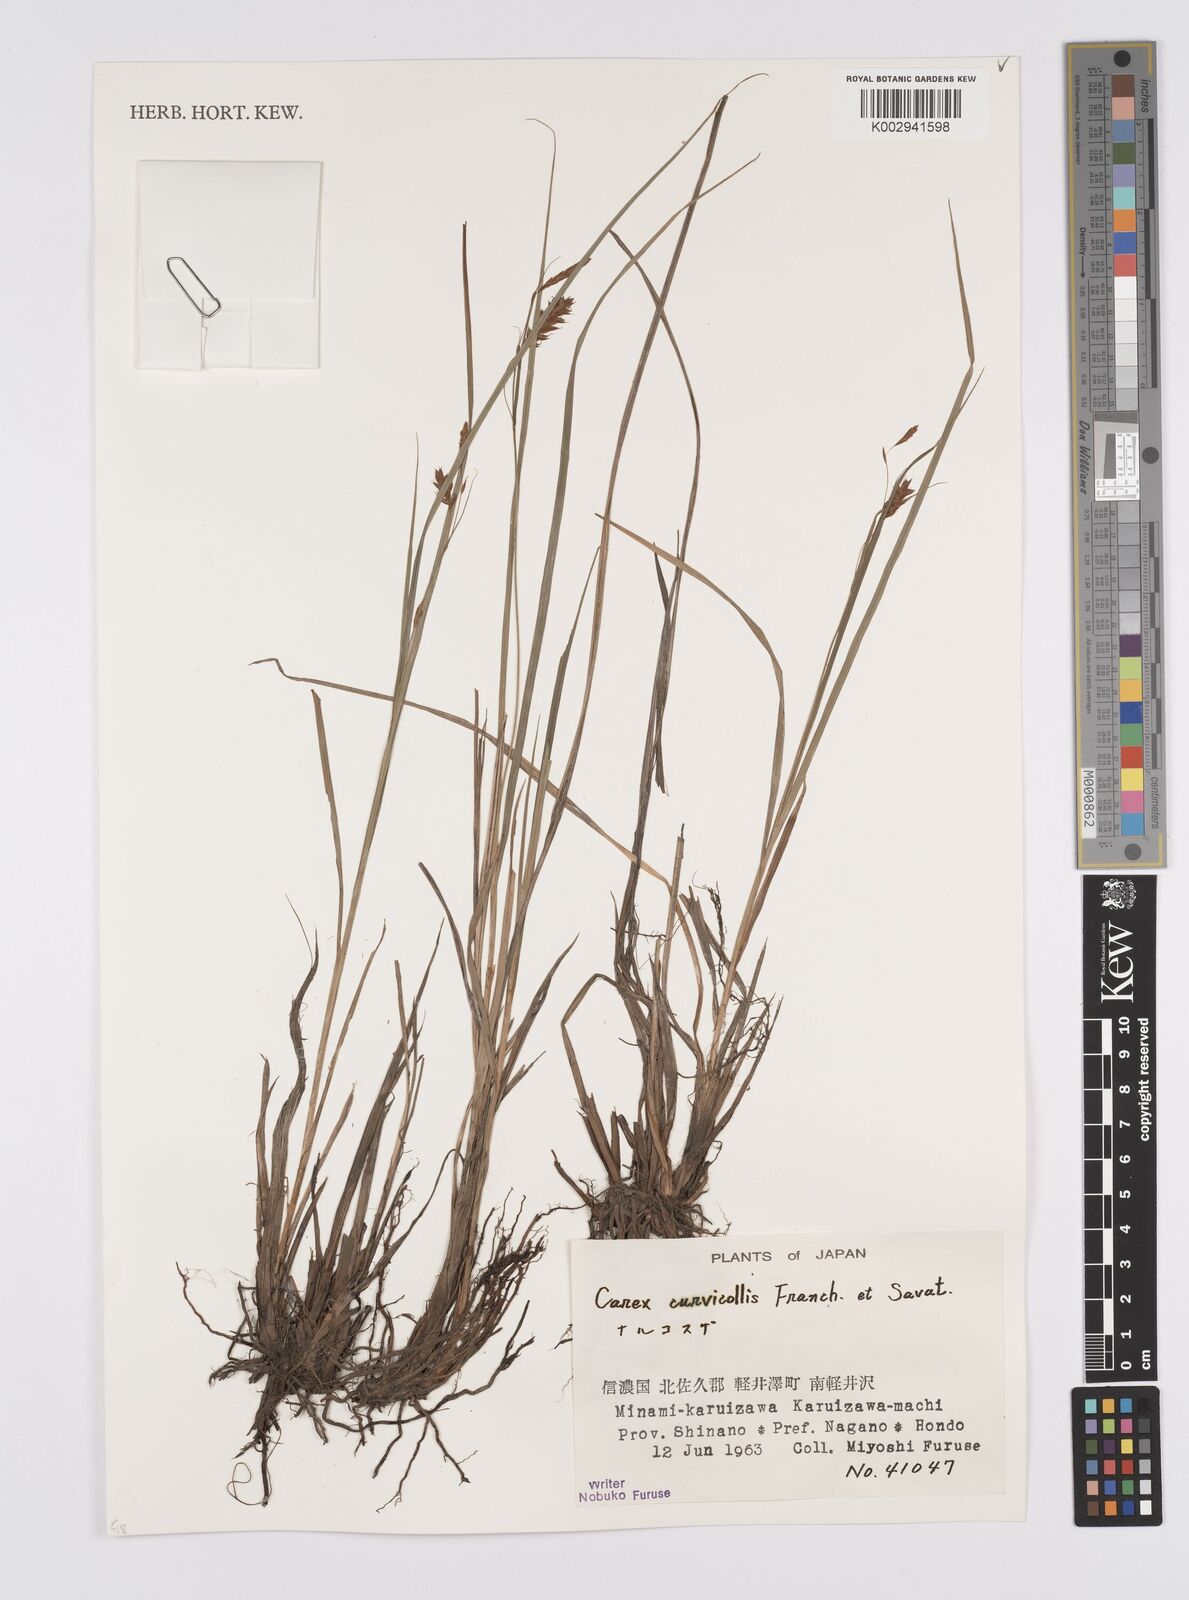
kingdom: Plantae
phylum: Tracheophyta
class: Liliopsida
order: Poales
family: Cyperaceae
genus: Carex
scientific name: Carex curvicollis
